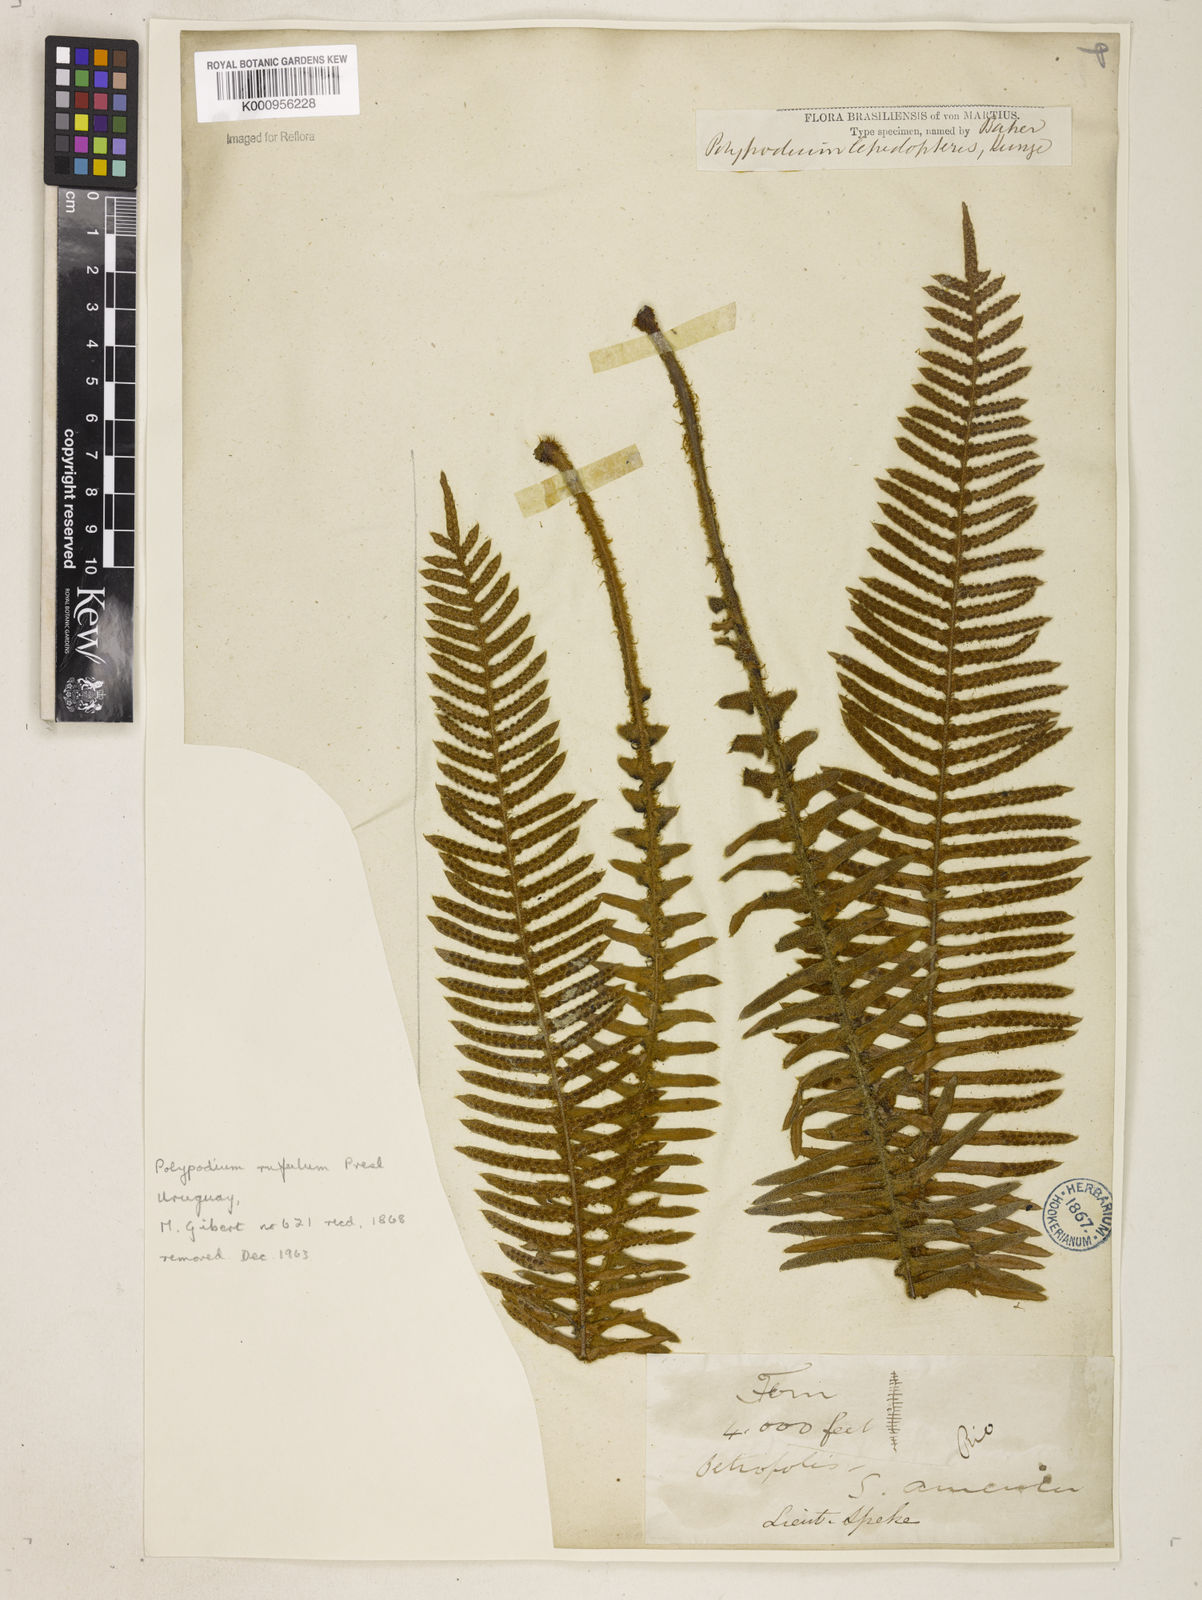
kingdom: Plantae
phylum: Tracheophyta
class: Polypodiopsida
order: Polypodiales
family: Polypodiaceae
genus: Pleopeltis
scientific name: Pleopeltis hirsutissima
